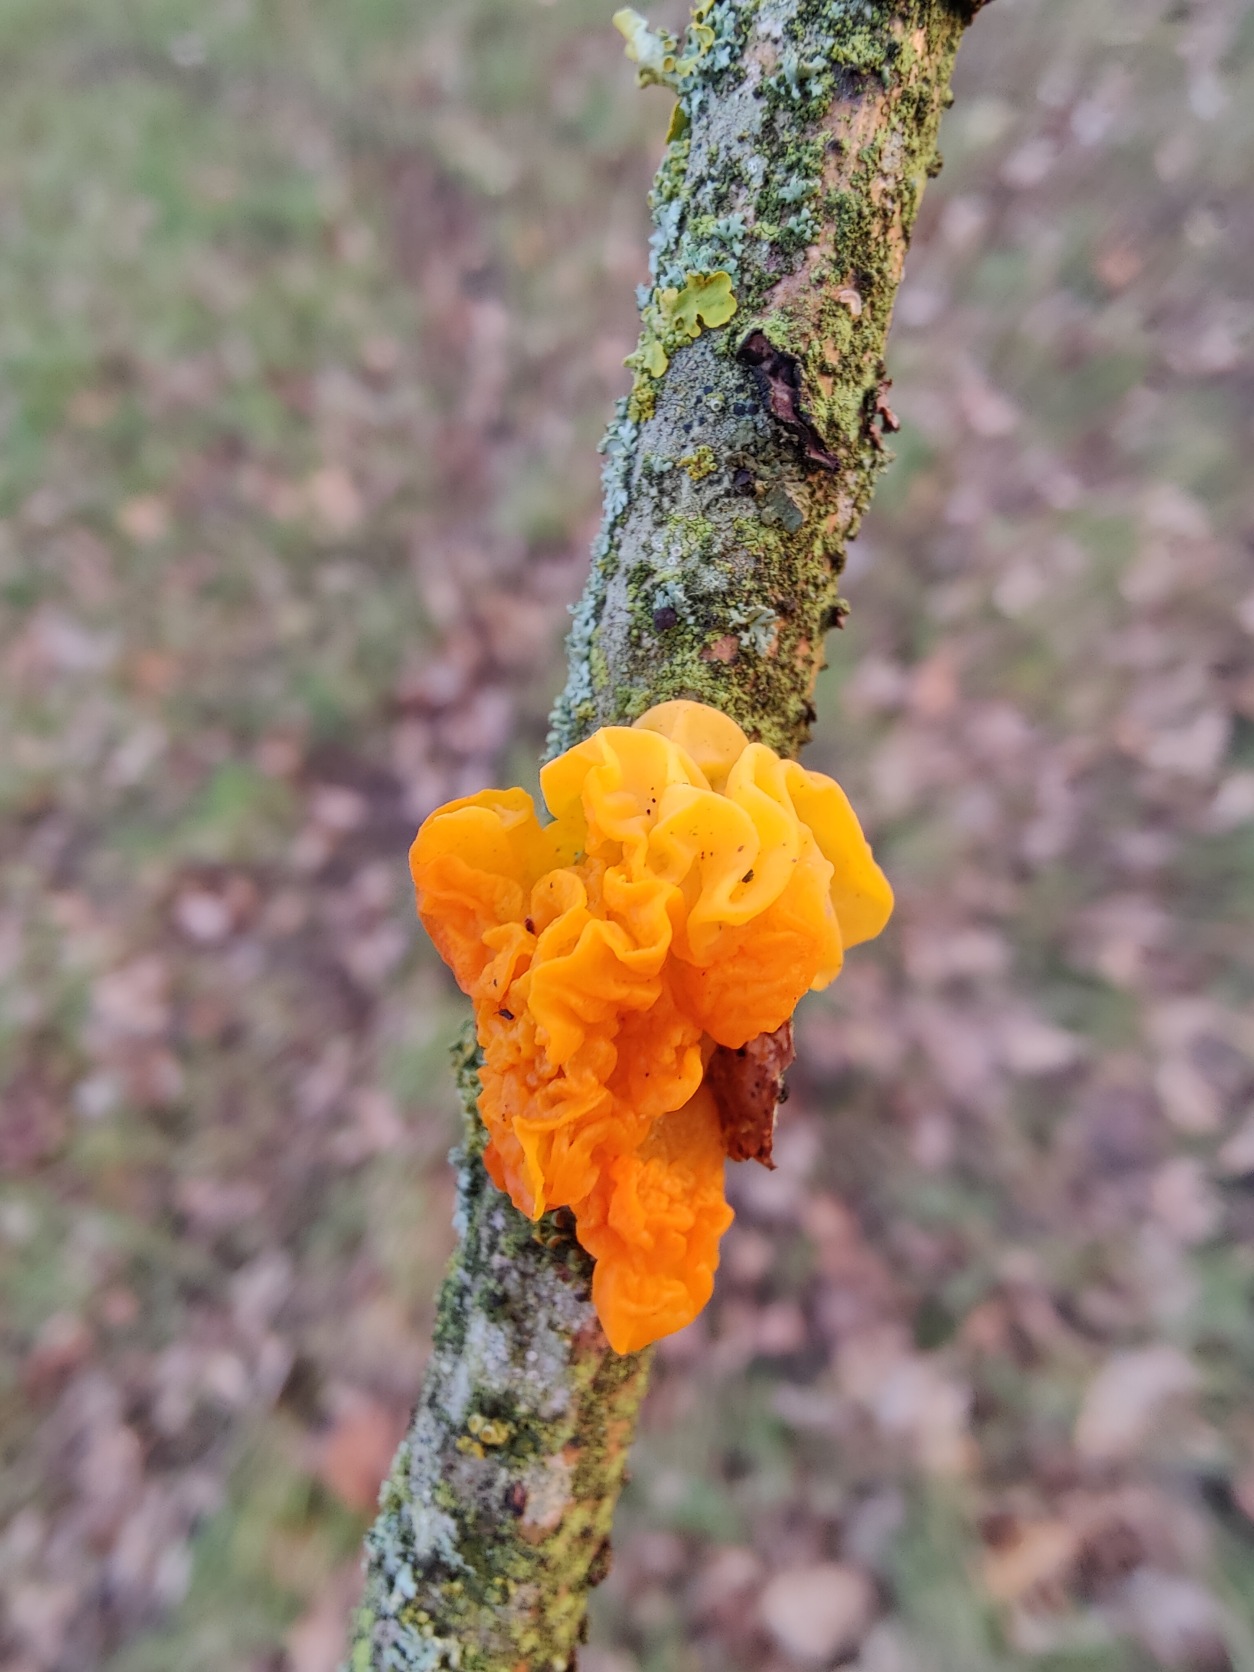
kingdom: Fungi
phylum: Basidiomycota
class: Tremellomycetes
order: Tremellales
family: Tremellaceae
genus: Tremella
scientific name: Tremella mesenterica
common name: Gul bævresvamp
